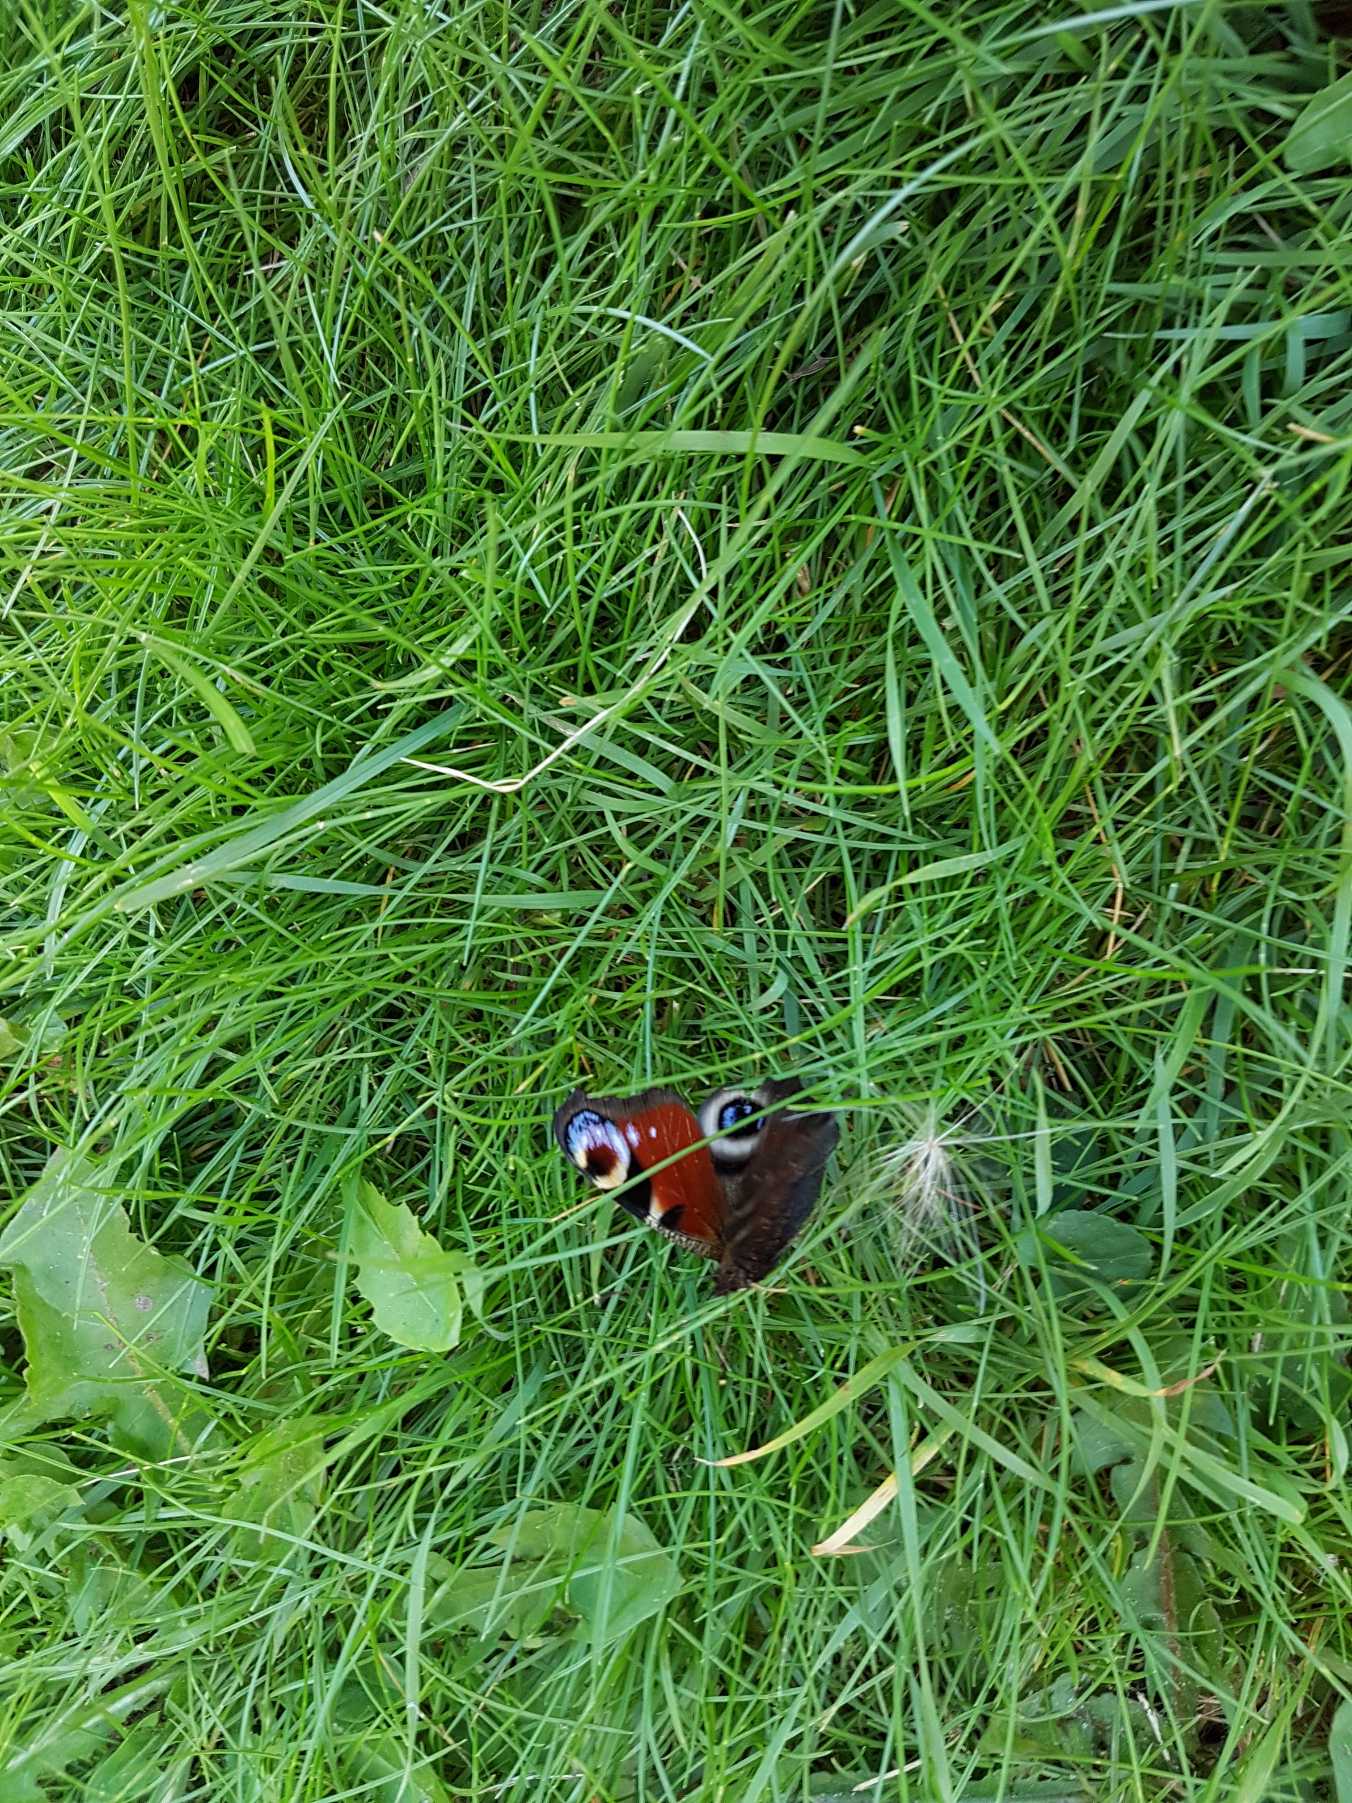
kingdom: Animalia
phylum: Arthropoda
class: Insecta
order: Lepidoptera
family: Nymphalidae
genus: Aglais
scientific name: Aglais io
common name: Dagpåfugleøje
